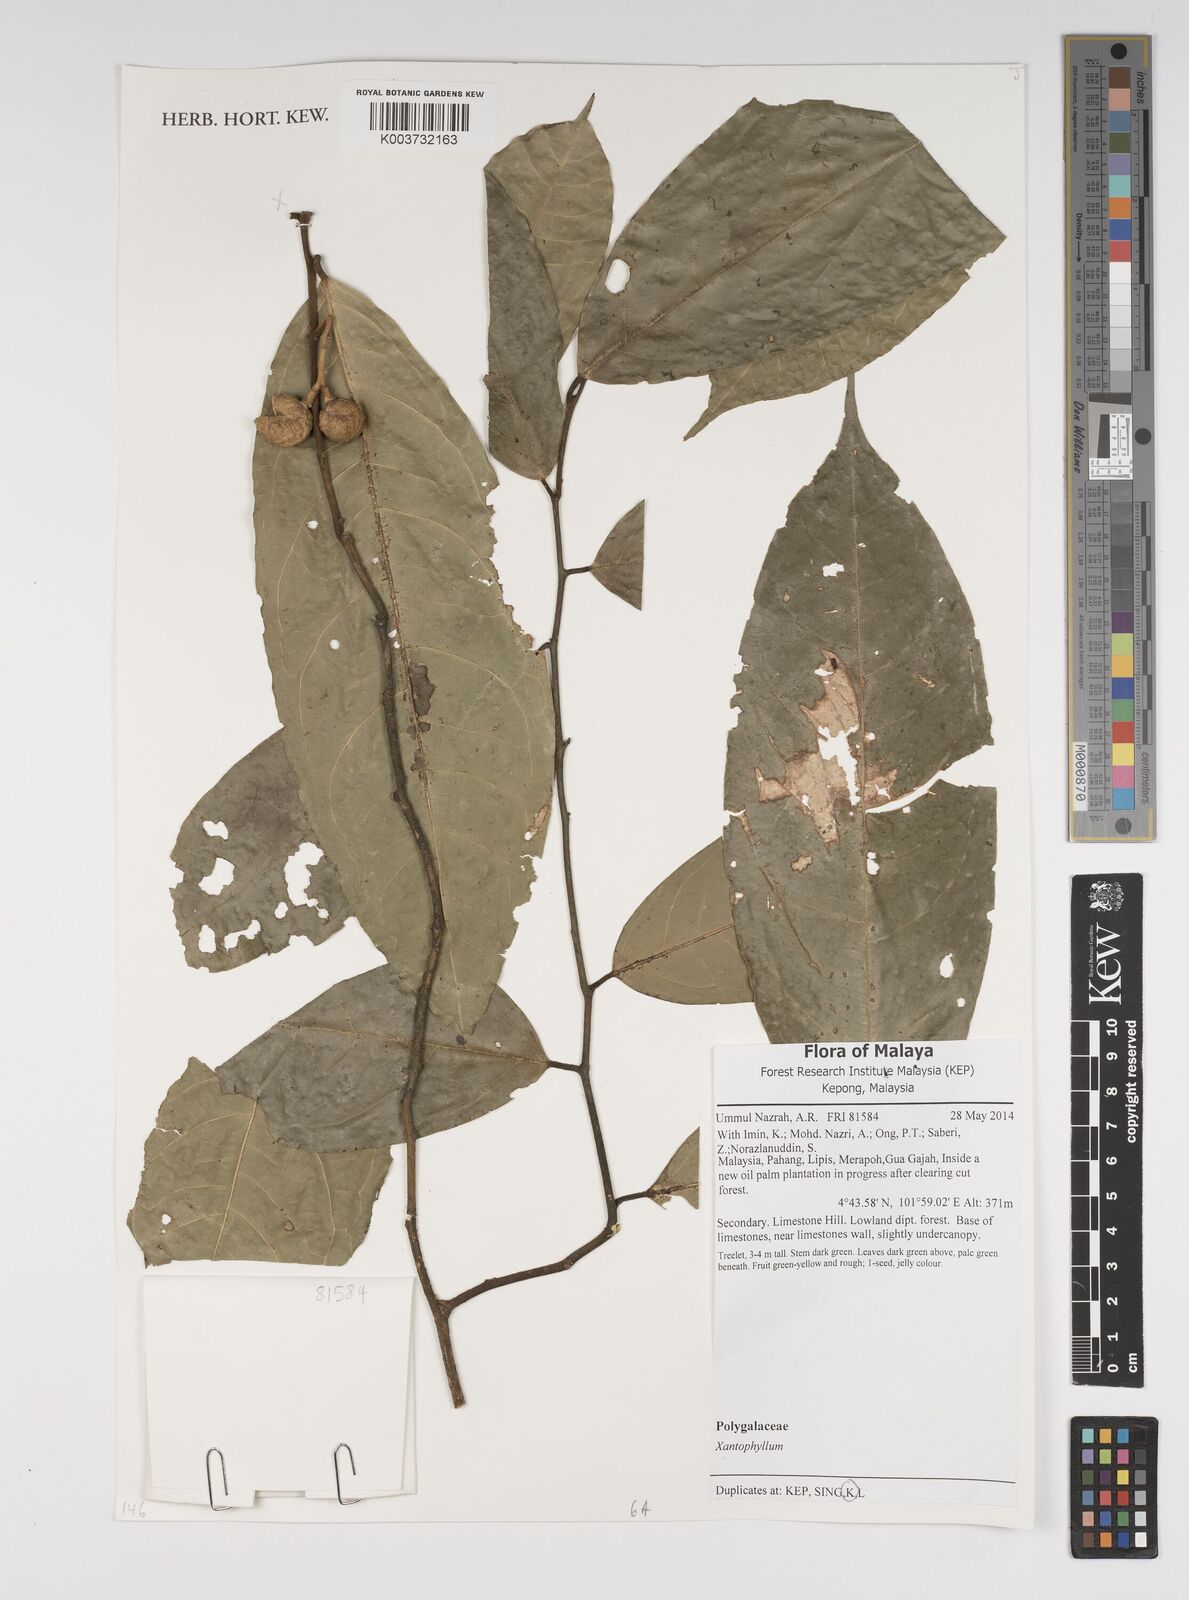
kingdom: Plantae
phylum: Tracheophyta
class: Magnoliopsida
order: Fabales
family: Polygalaceae
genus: Xanthophyllum
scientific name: Xanthophyllum
